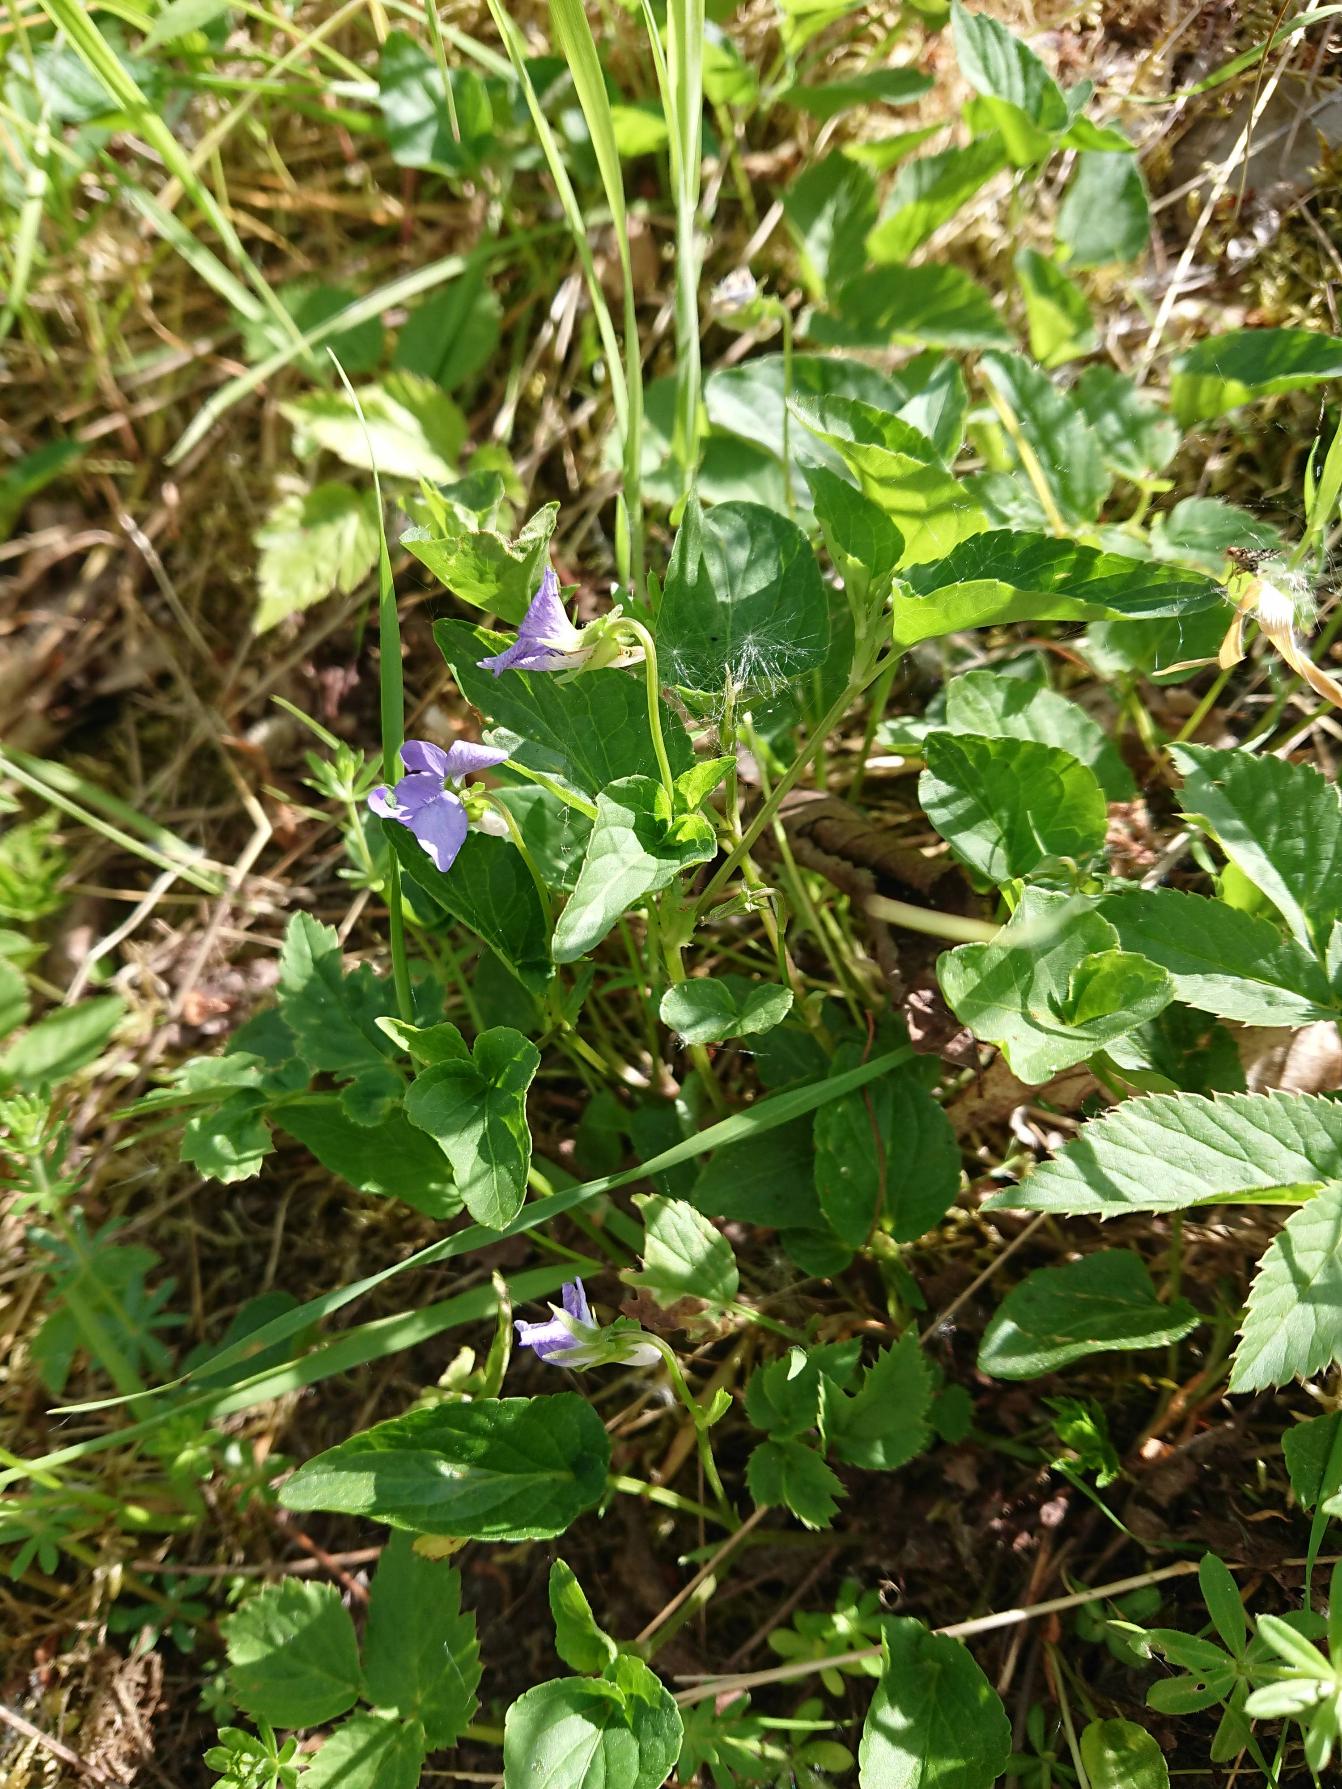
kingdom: Plantae
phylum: Tracheophyta
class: Magnoliopsida
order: Malpighiales
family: Violaceae
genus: Viola
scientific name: Viola canina
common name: Hunde-viol
